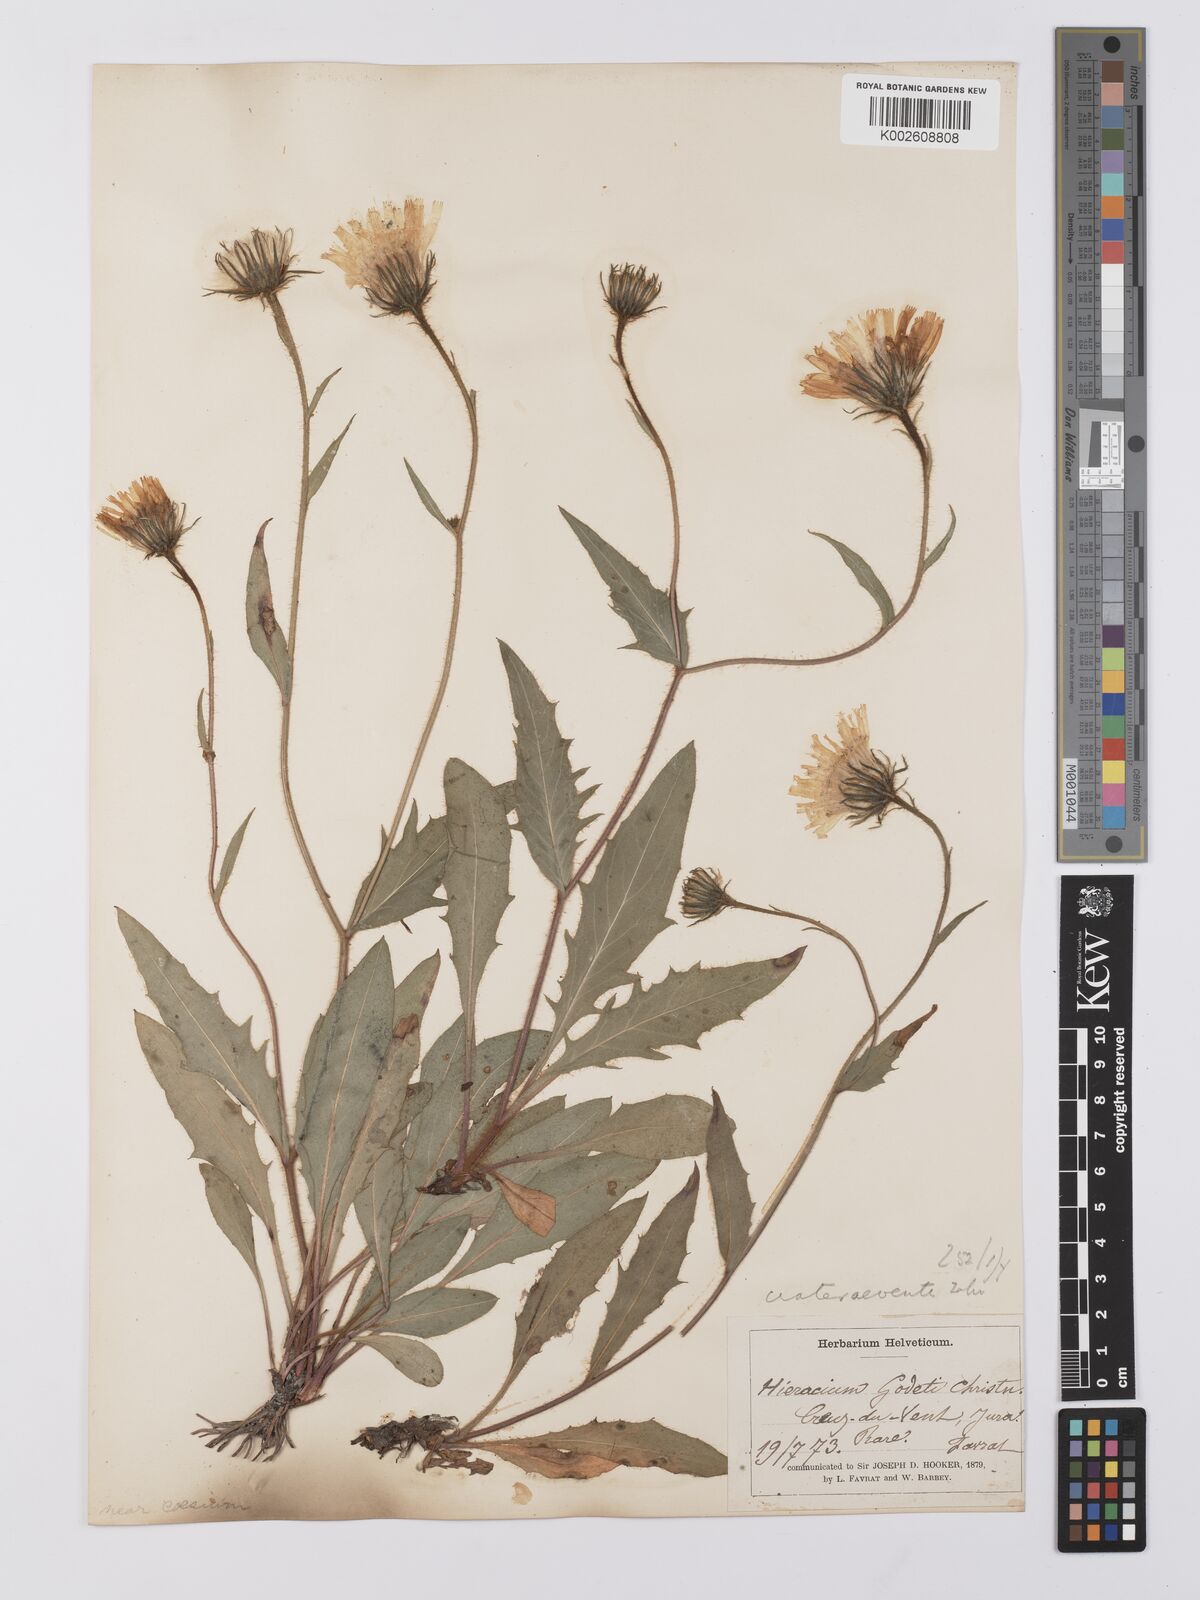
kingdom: Plantae
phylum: Tracheophyta
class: Magnoliopsida
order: Asterales
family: Asteraceae
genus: Hieracium
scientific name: Hieracium humile
